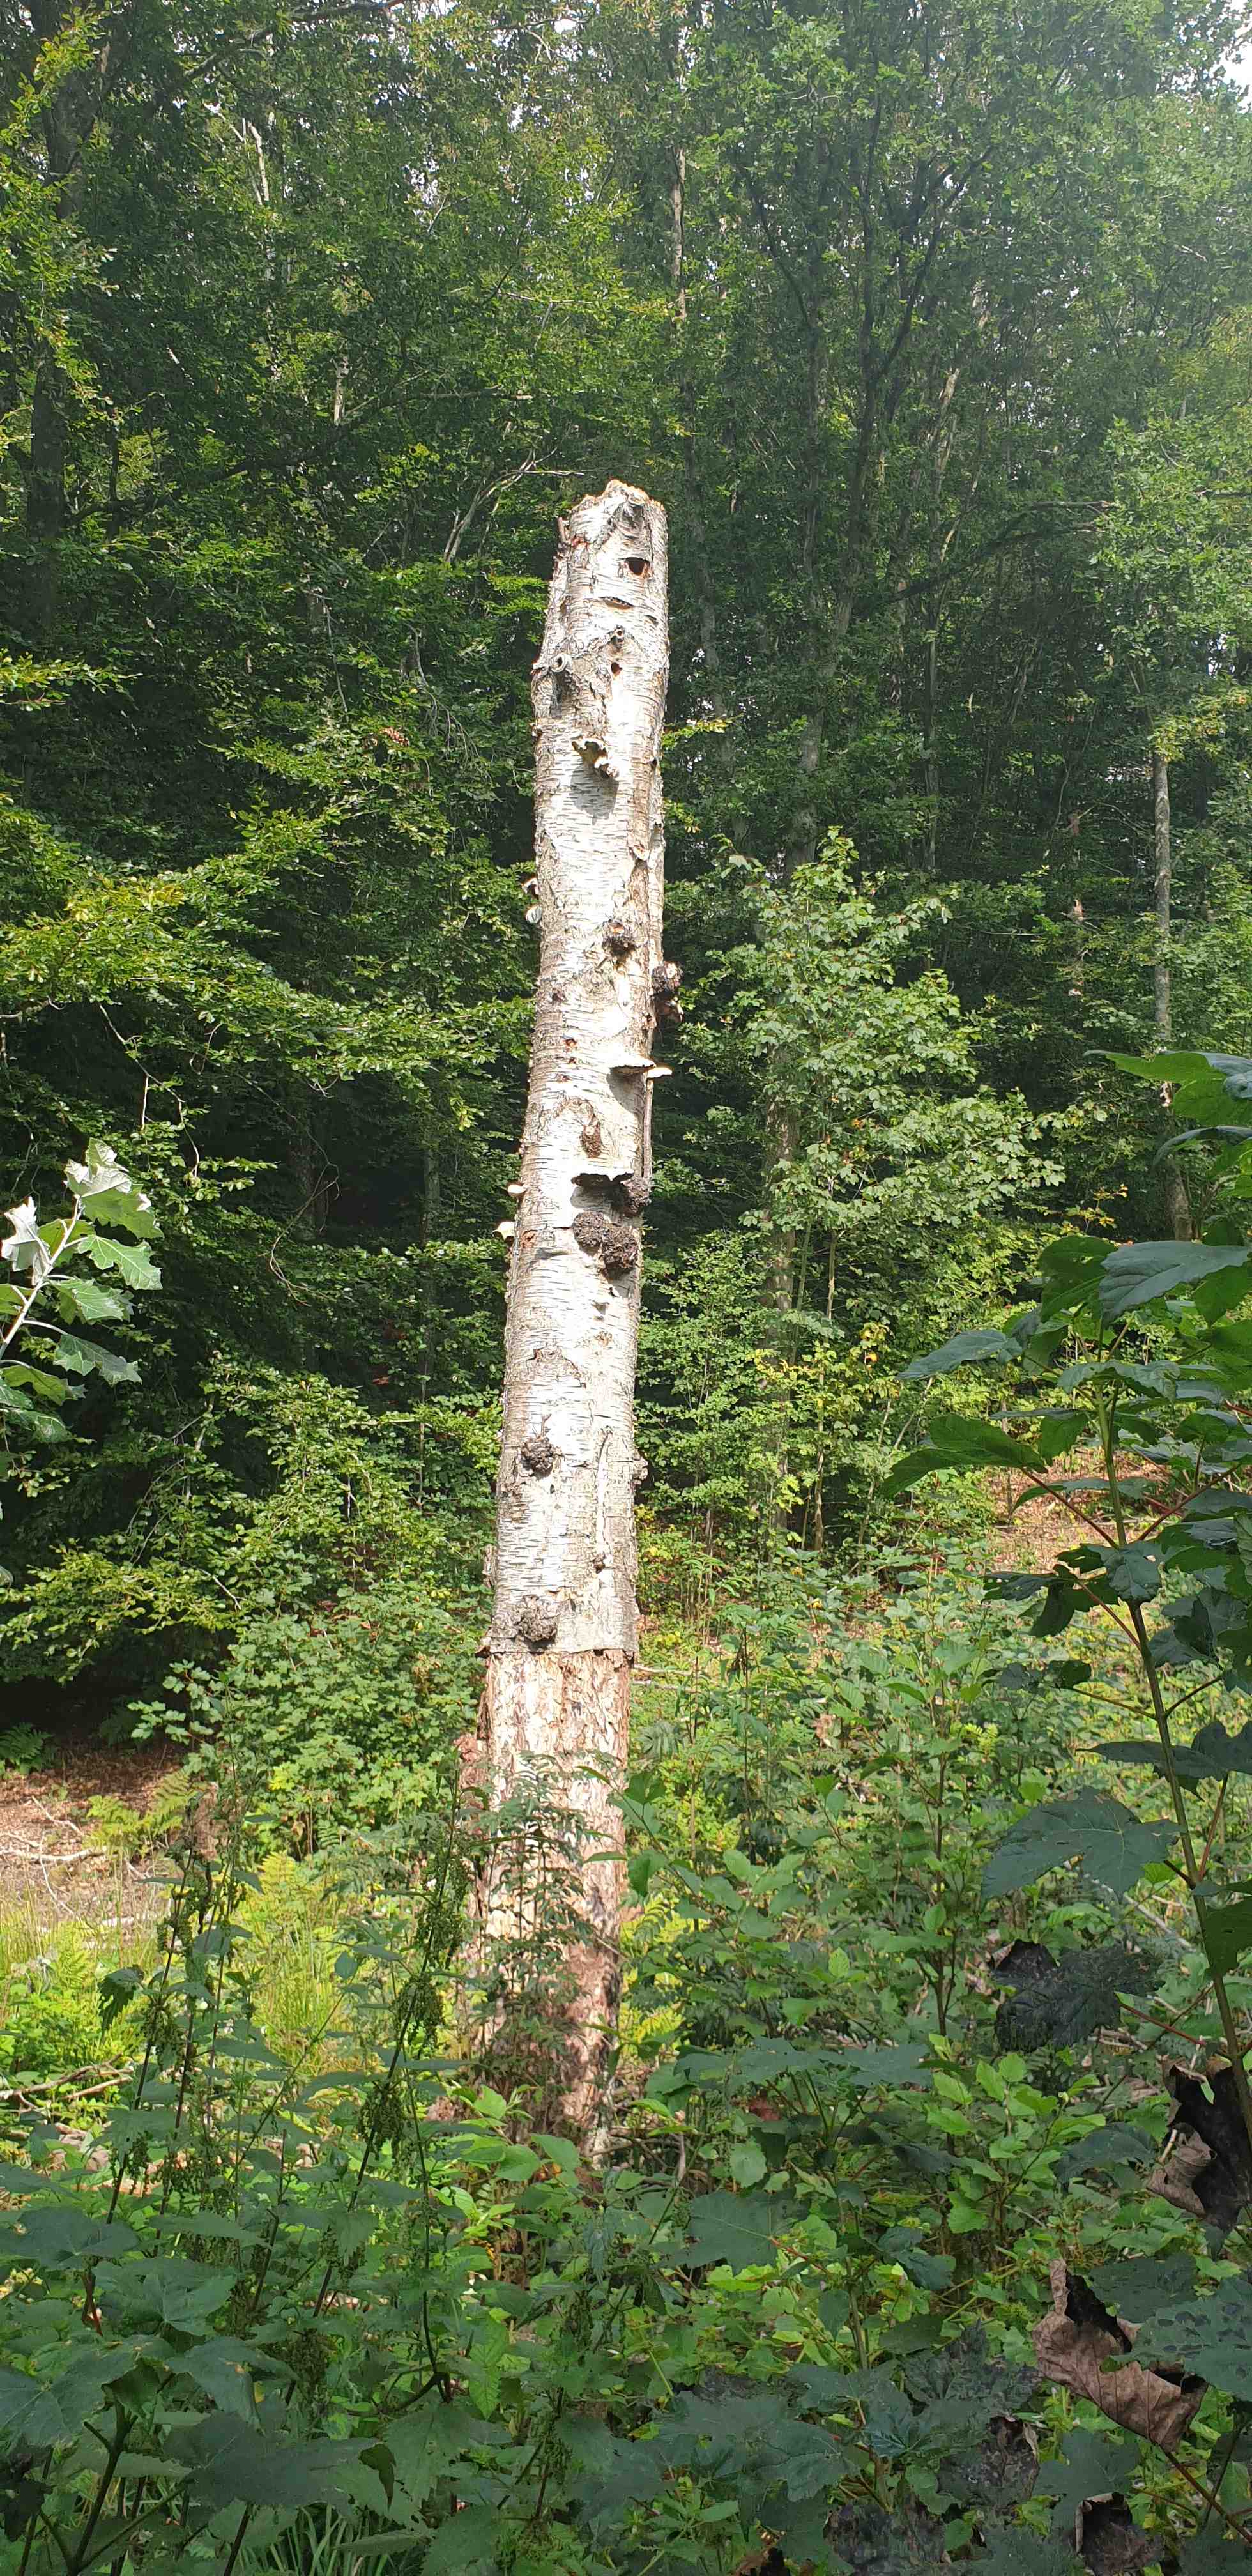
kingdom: Fungi
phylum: Basidiomycota
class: Agaricomycetes
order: Polyporales
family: Fomitopsidaceae
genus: Fomitopsis
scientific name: Fomitopsis betulina
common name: birkeporesvamp
